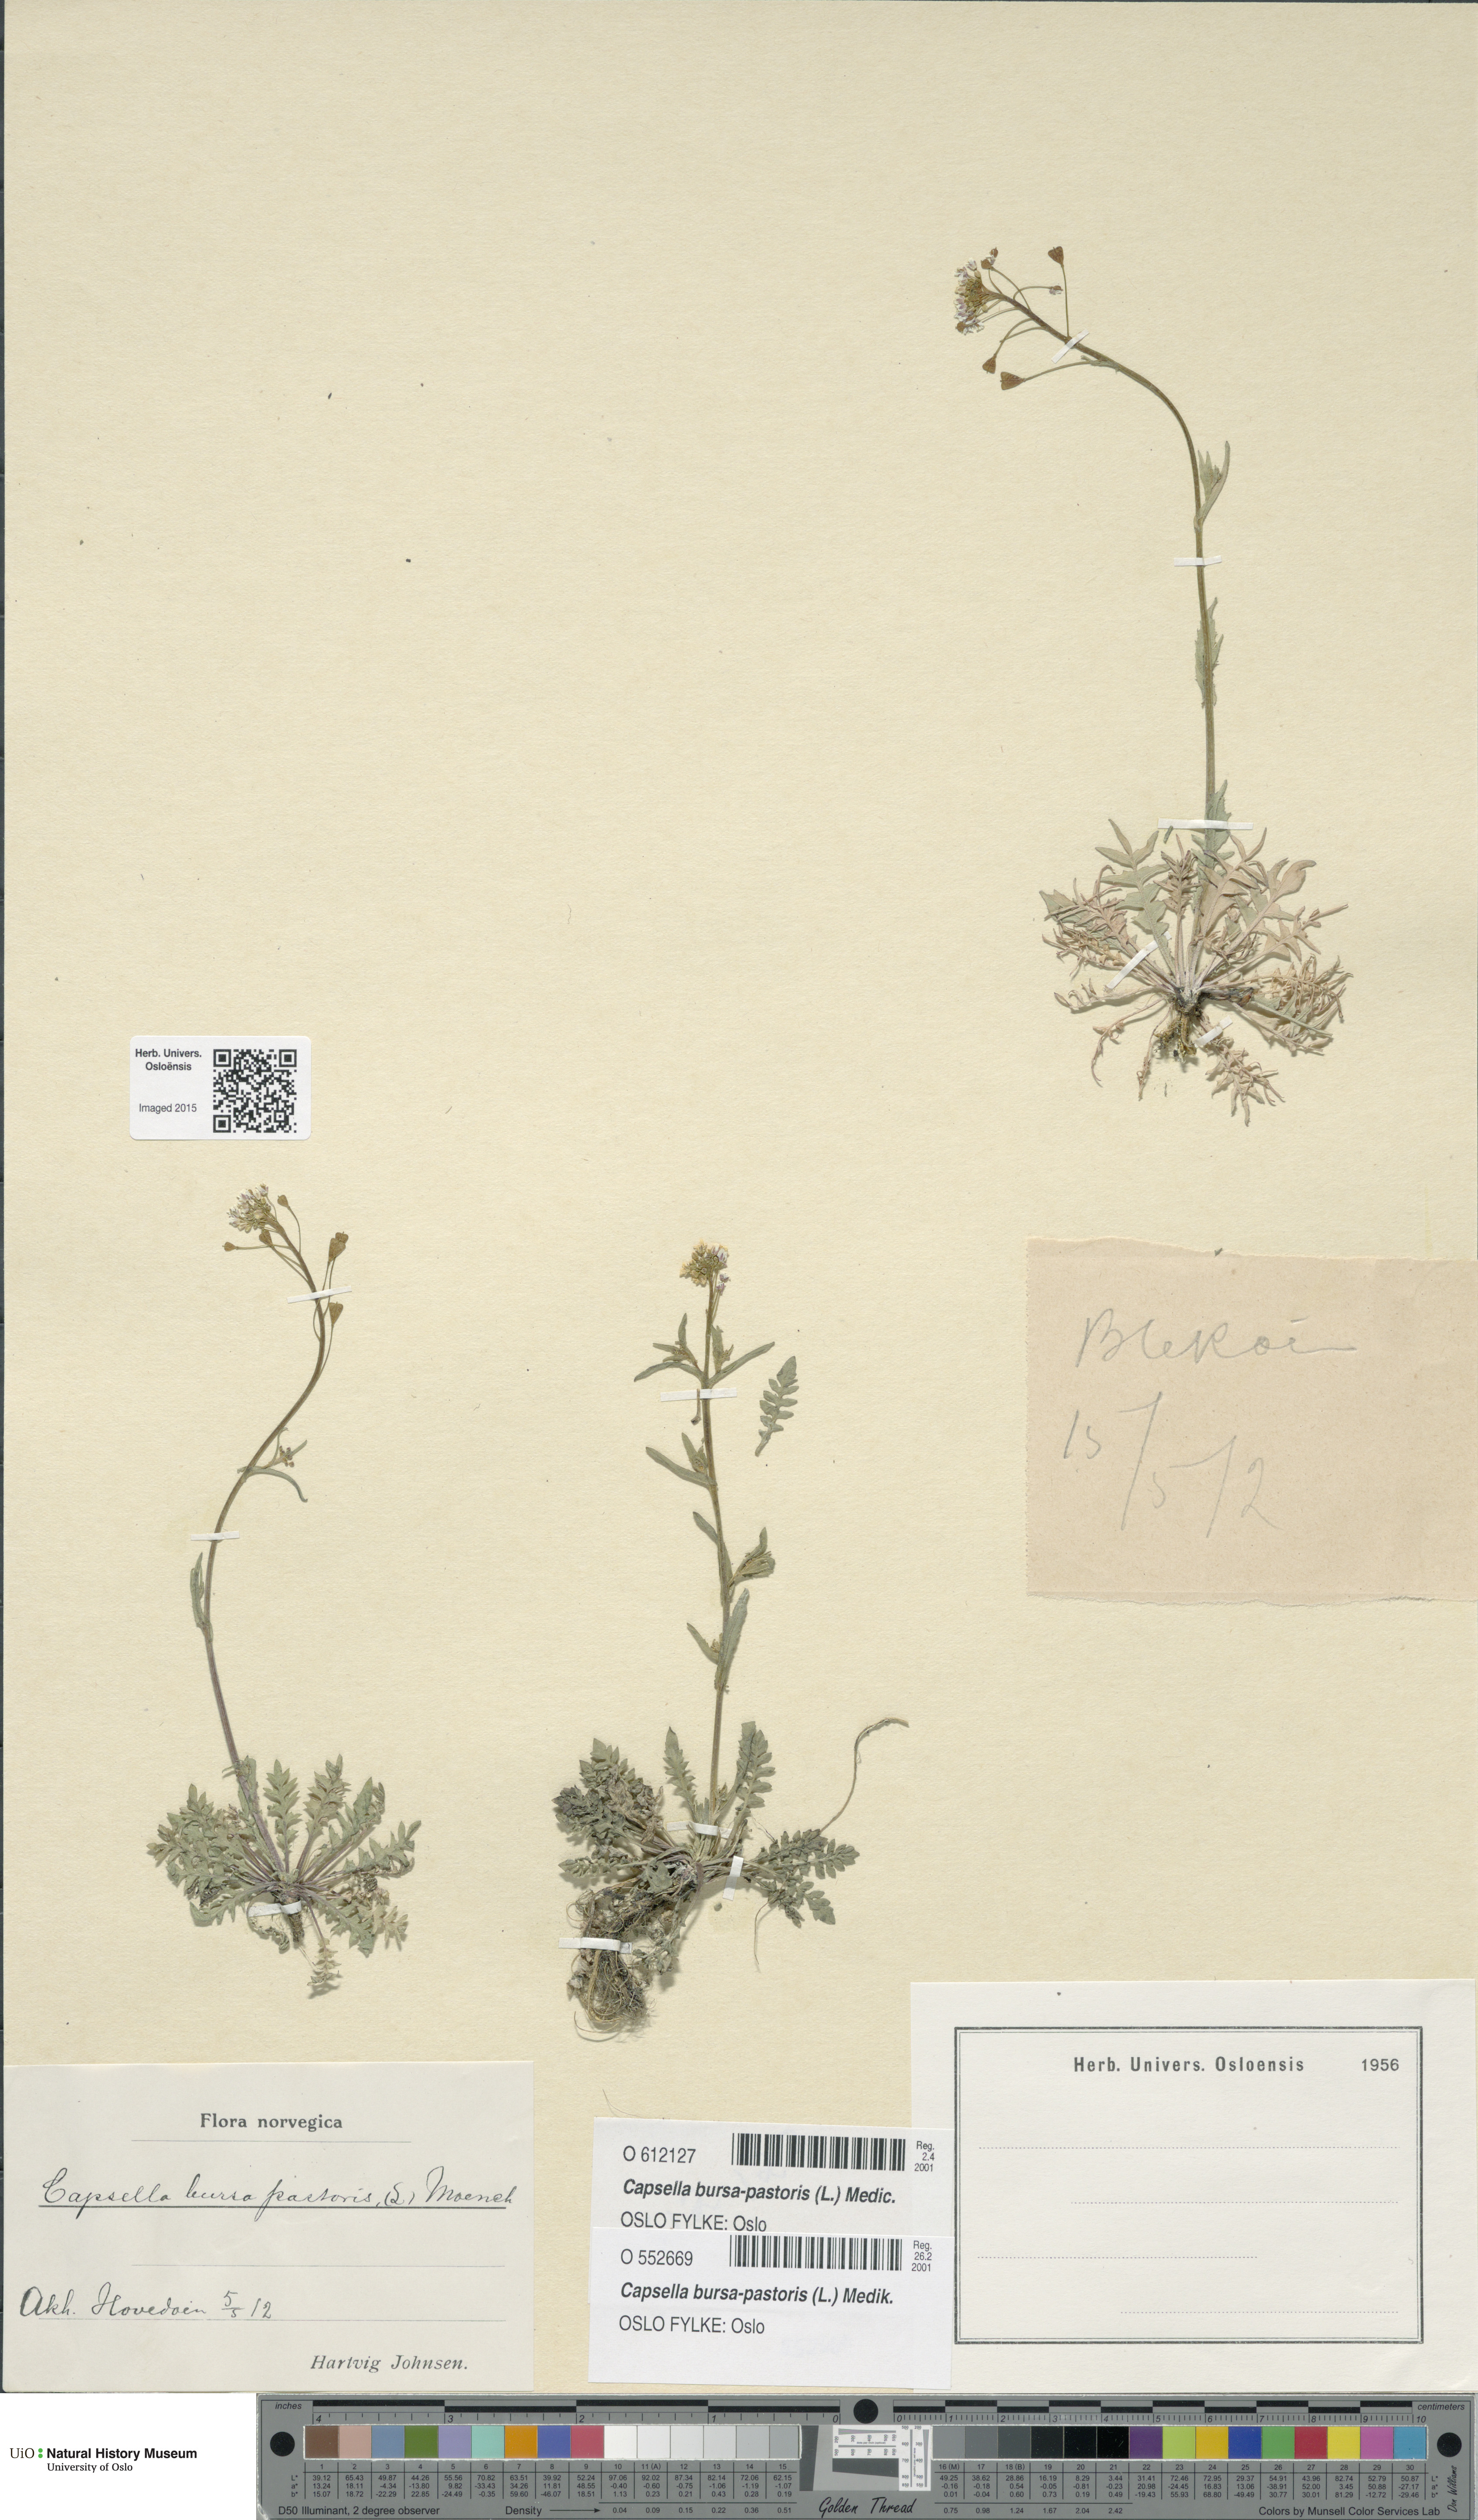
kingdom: Plantae
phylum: Tracheophyta
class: Magnoliopsida
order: Brassicales
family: Brassicaceae
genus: Capsella
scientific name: Capsella bursa-pastoris
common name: Shepherd's purse
